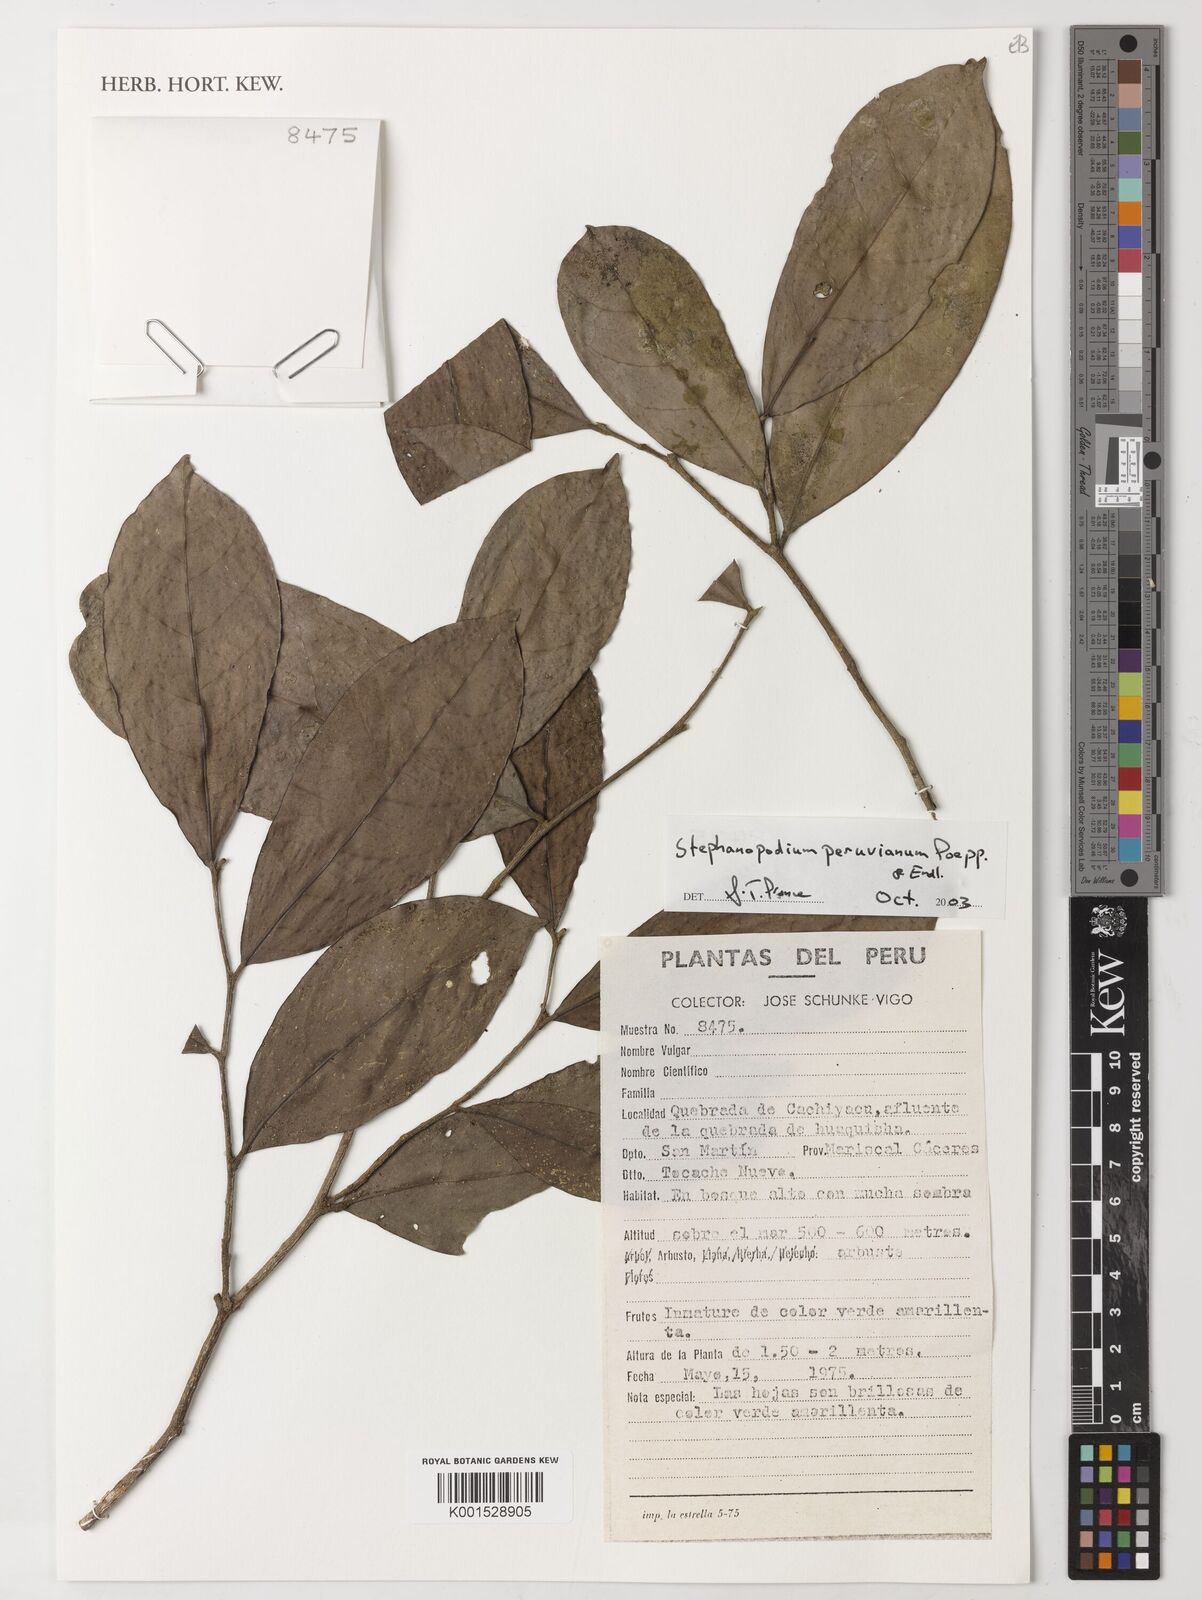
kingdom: Plantae
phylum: Tracheophyta
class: Magnoliopsida
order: Malpighiales
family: Dichapetalaceae
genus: Stephanopodium
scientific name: Stephanopodium peruvianum
